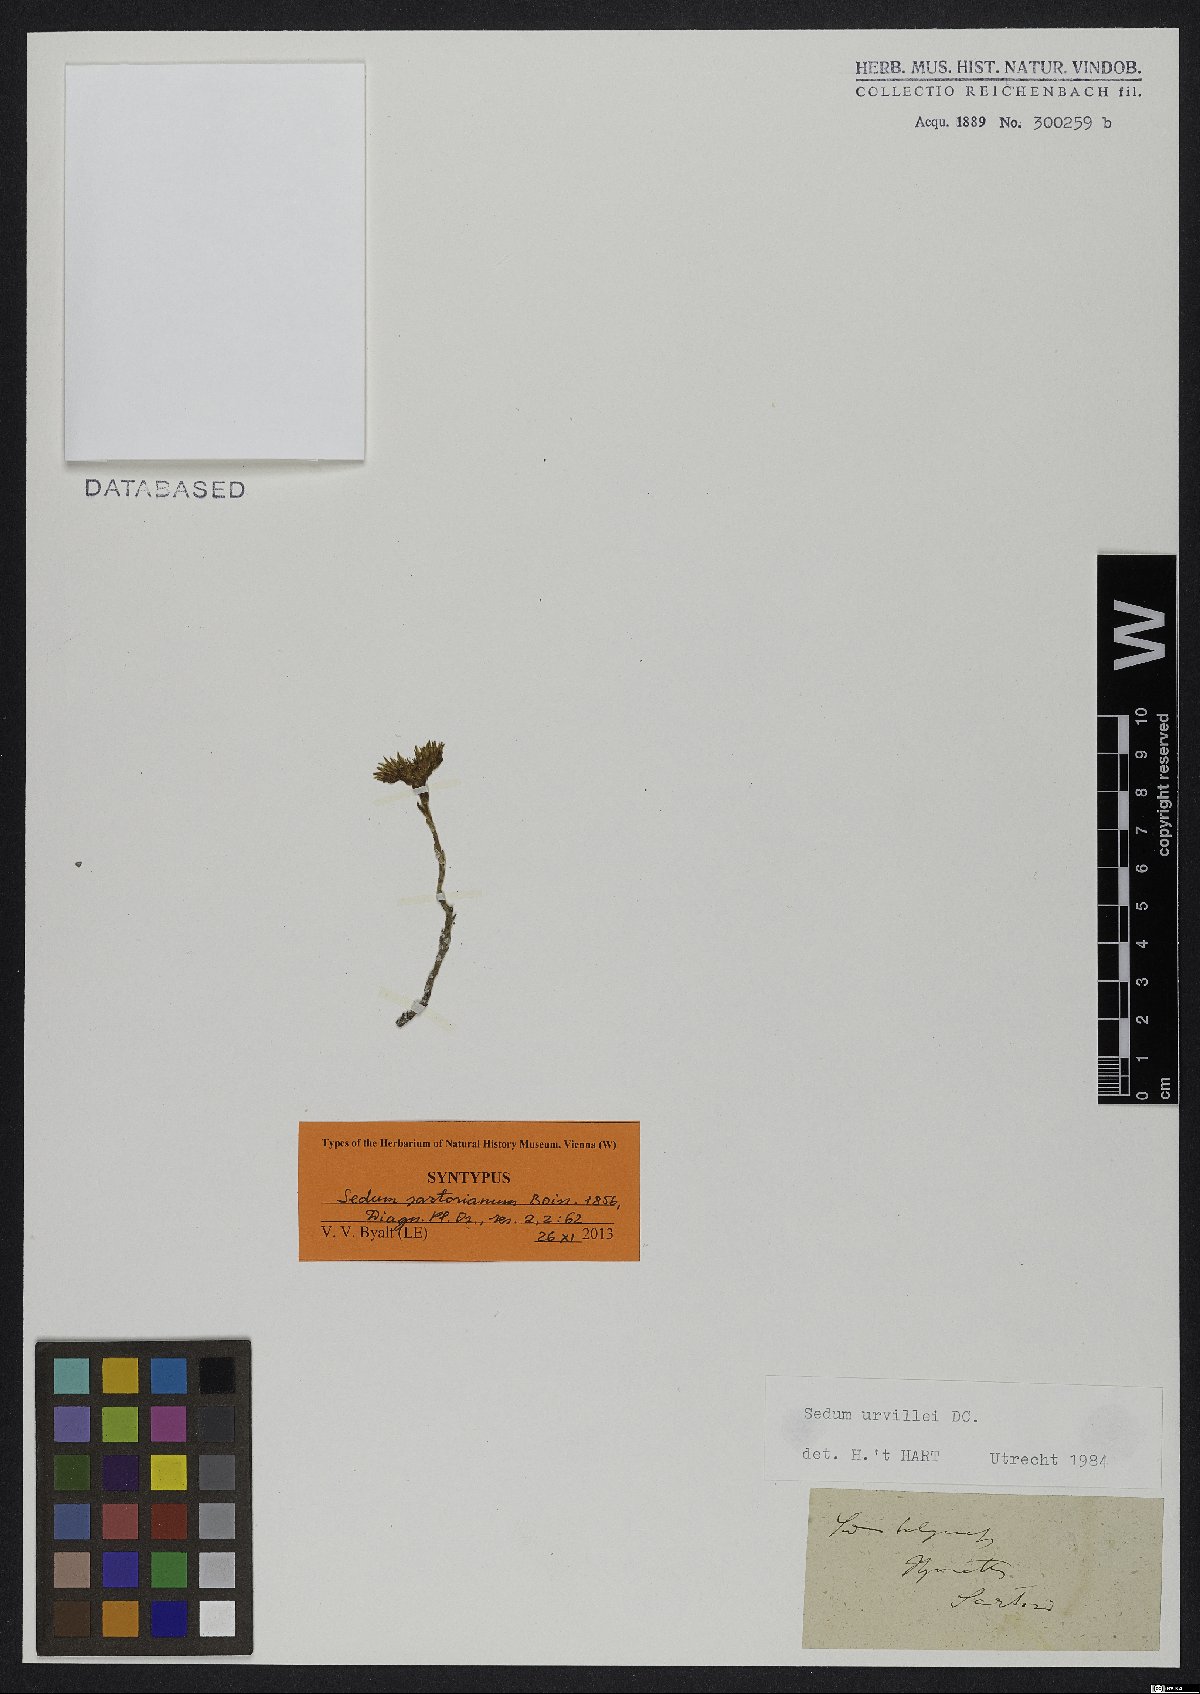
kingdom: Plantae
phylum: Tracheophyta
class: Magnoliopsida
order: Saxifragales
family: Crassulaceae
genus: Sedum
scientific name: Sedum urvillei
